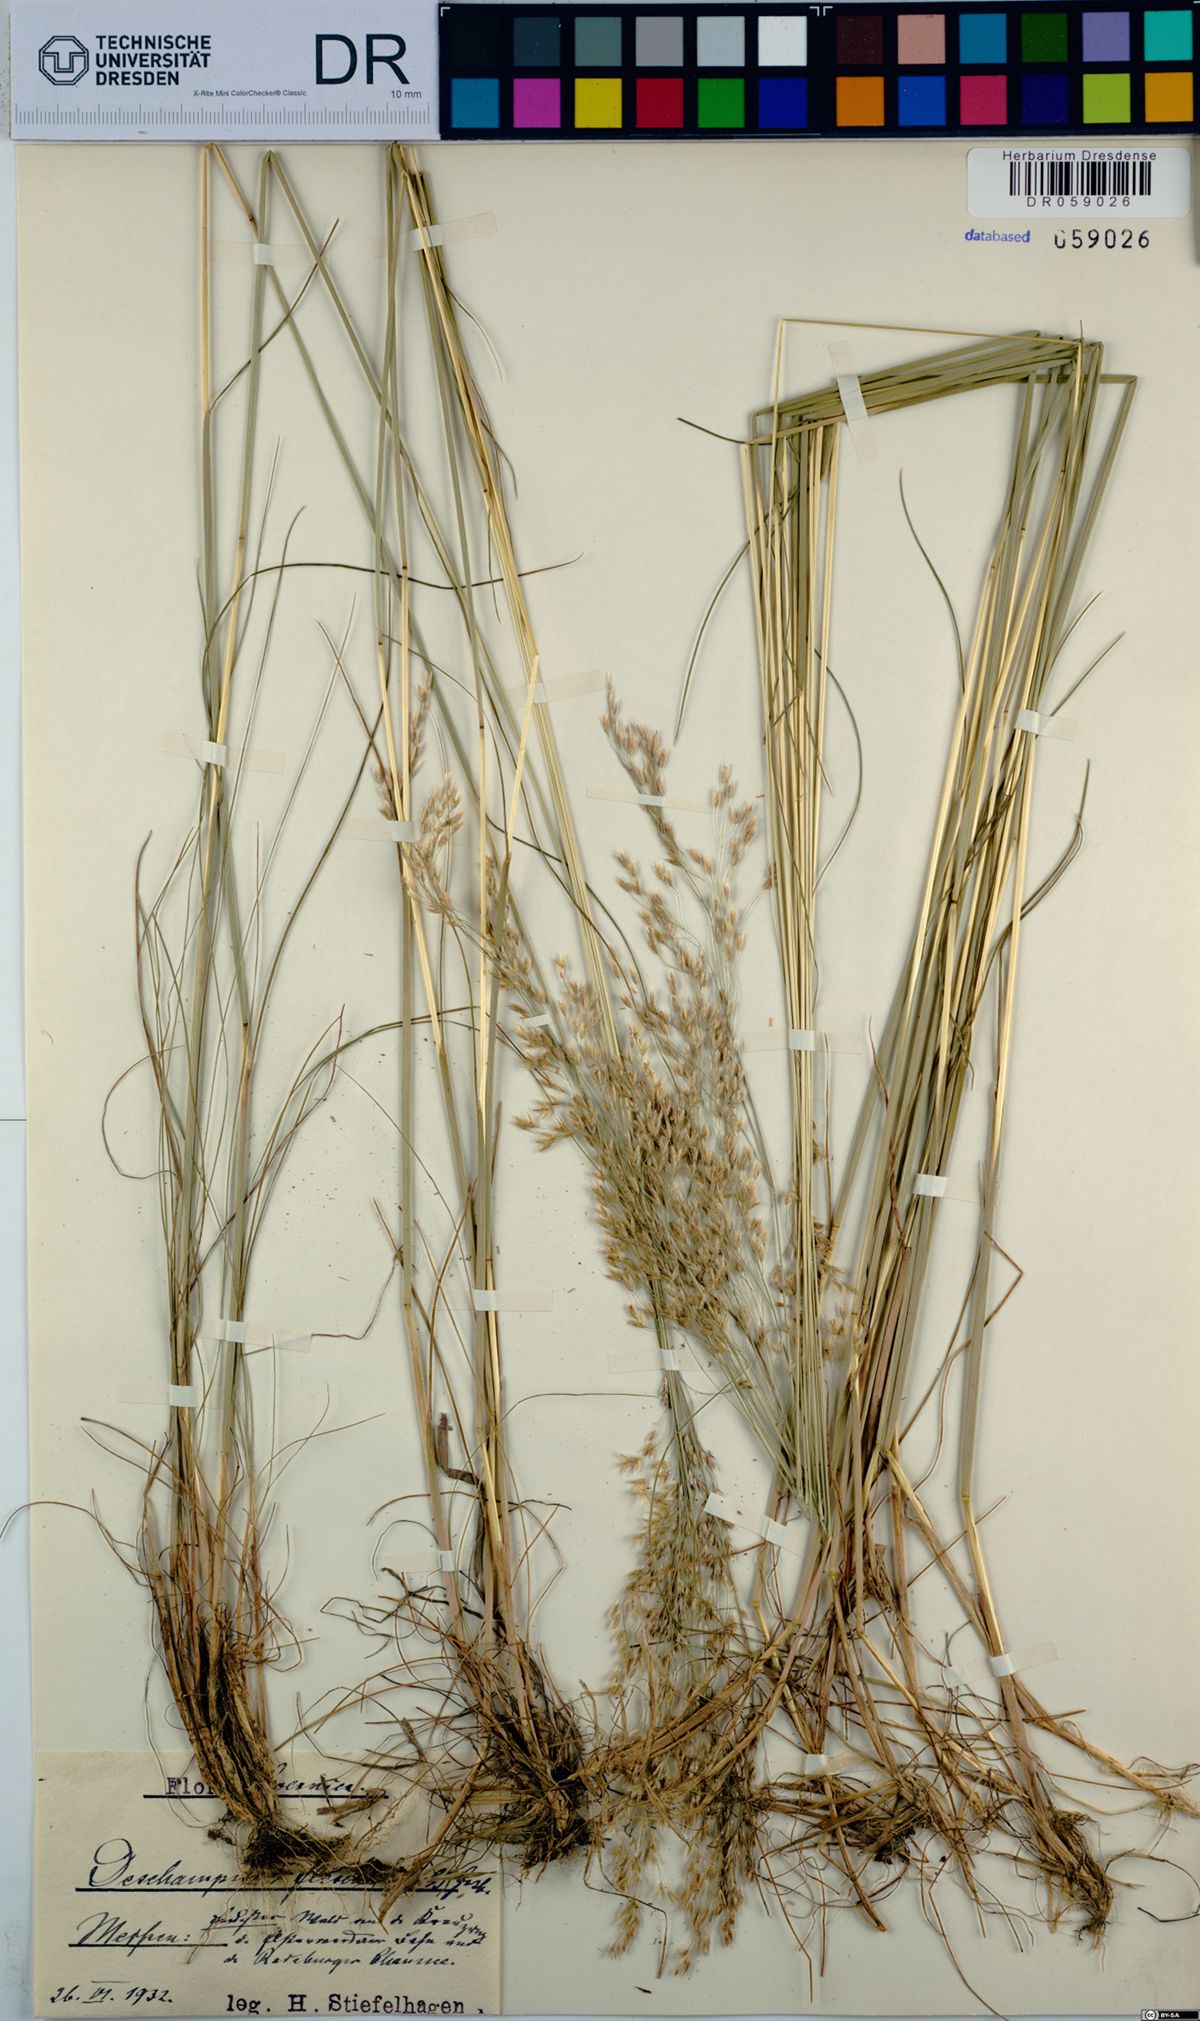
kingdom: Plantae
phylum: Tracheophyta
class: Liliopsida
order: Poales
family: Poaceae
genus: Avenella
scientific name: Avenella flexuosa
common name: Wavy hairgrass
